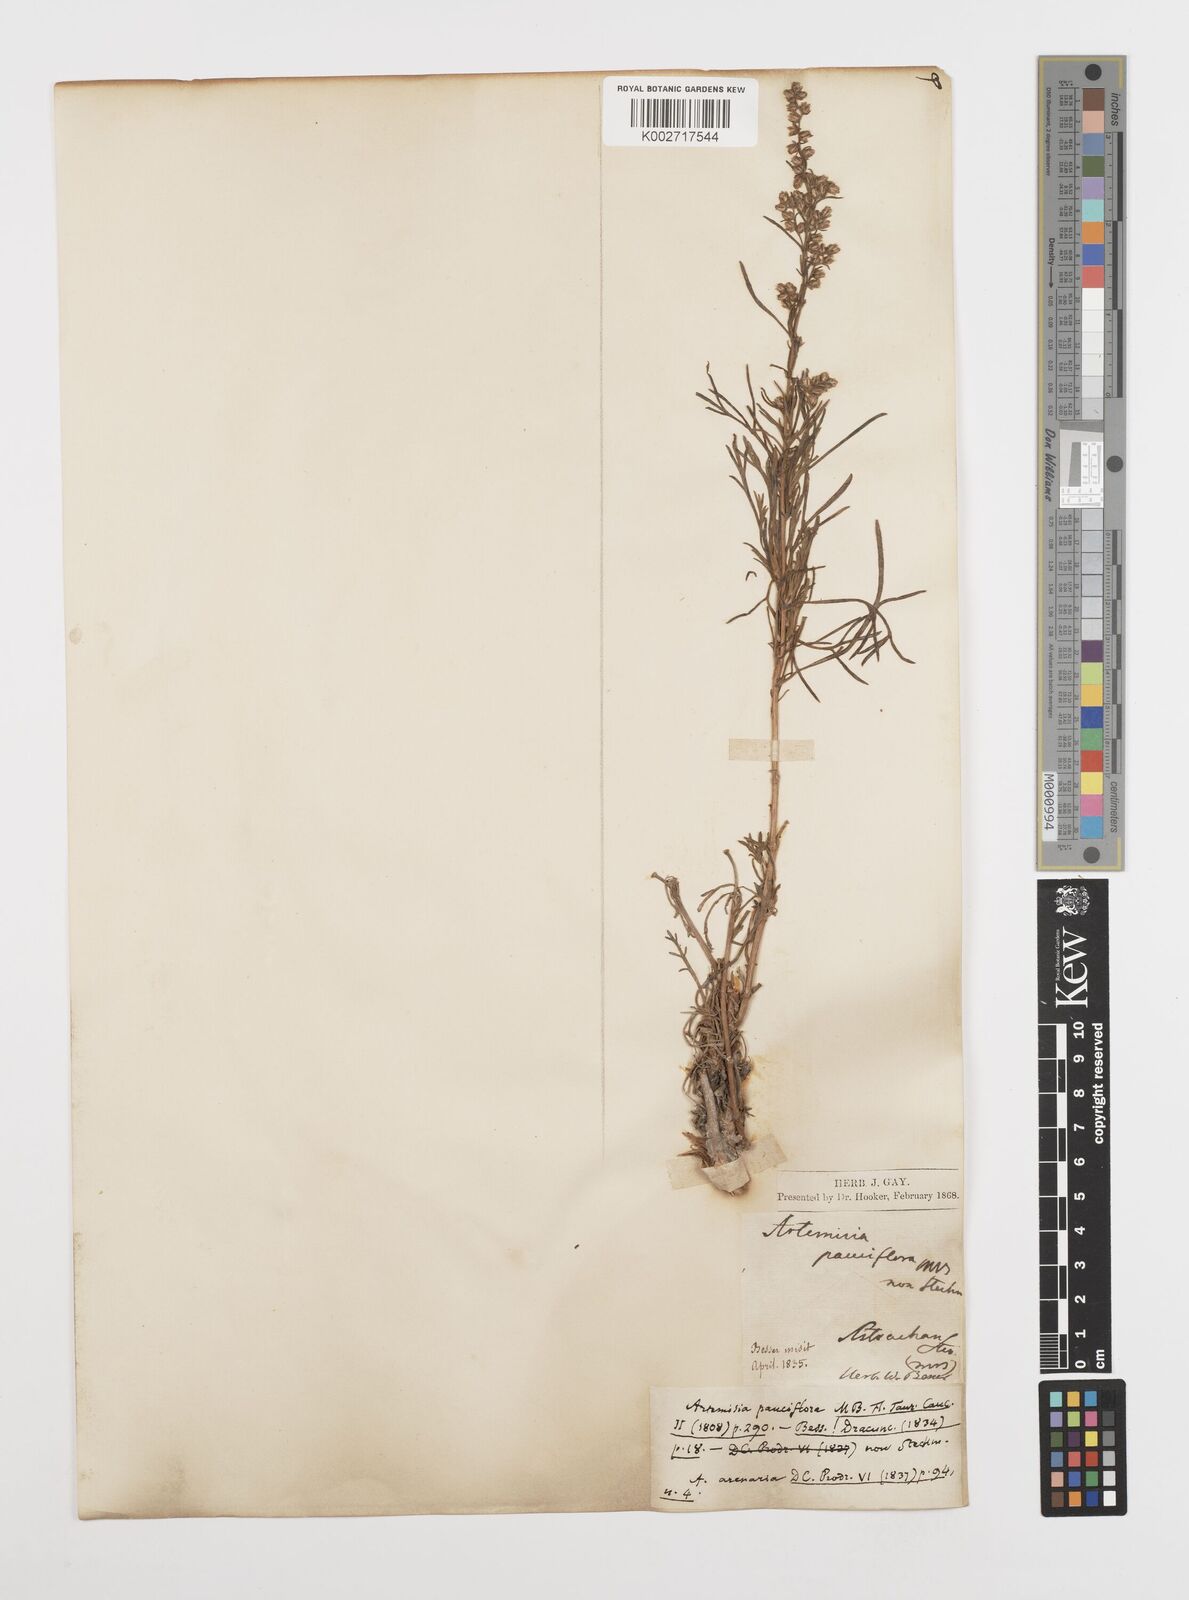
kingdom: Plantae
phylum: Tracheophyta
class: Magnoliopsida
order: Asterales
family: Asteraceae
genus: Artemisia
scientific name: Artemisia
